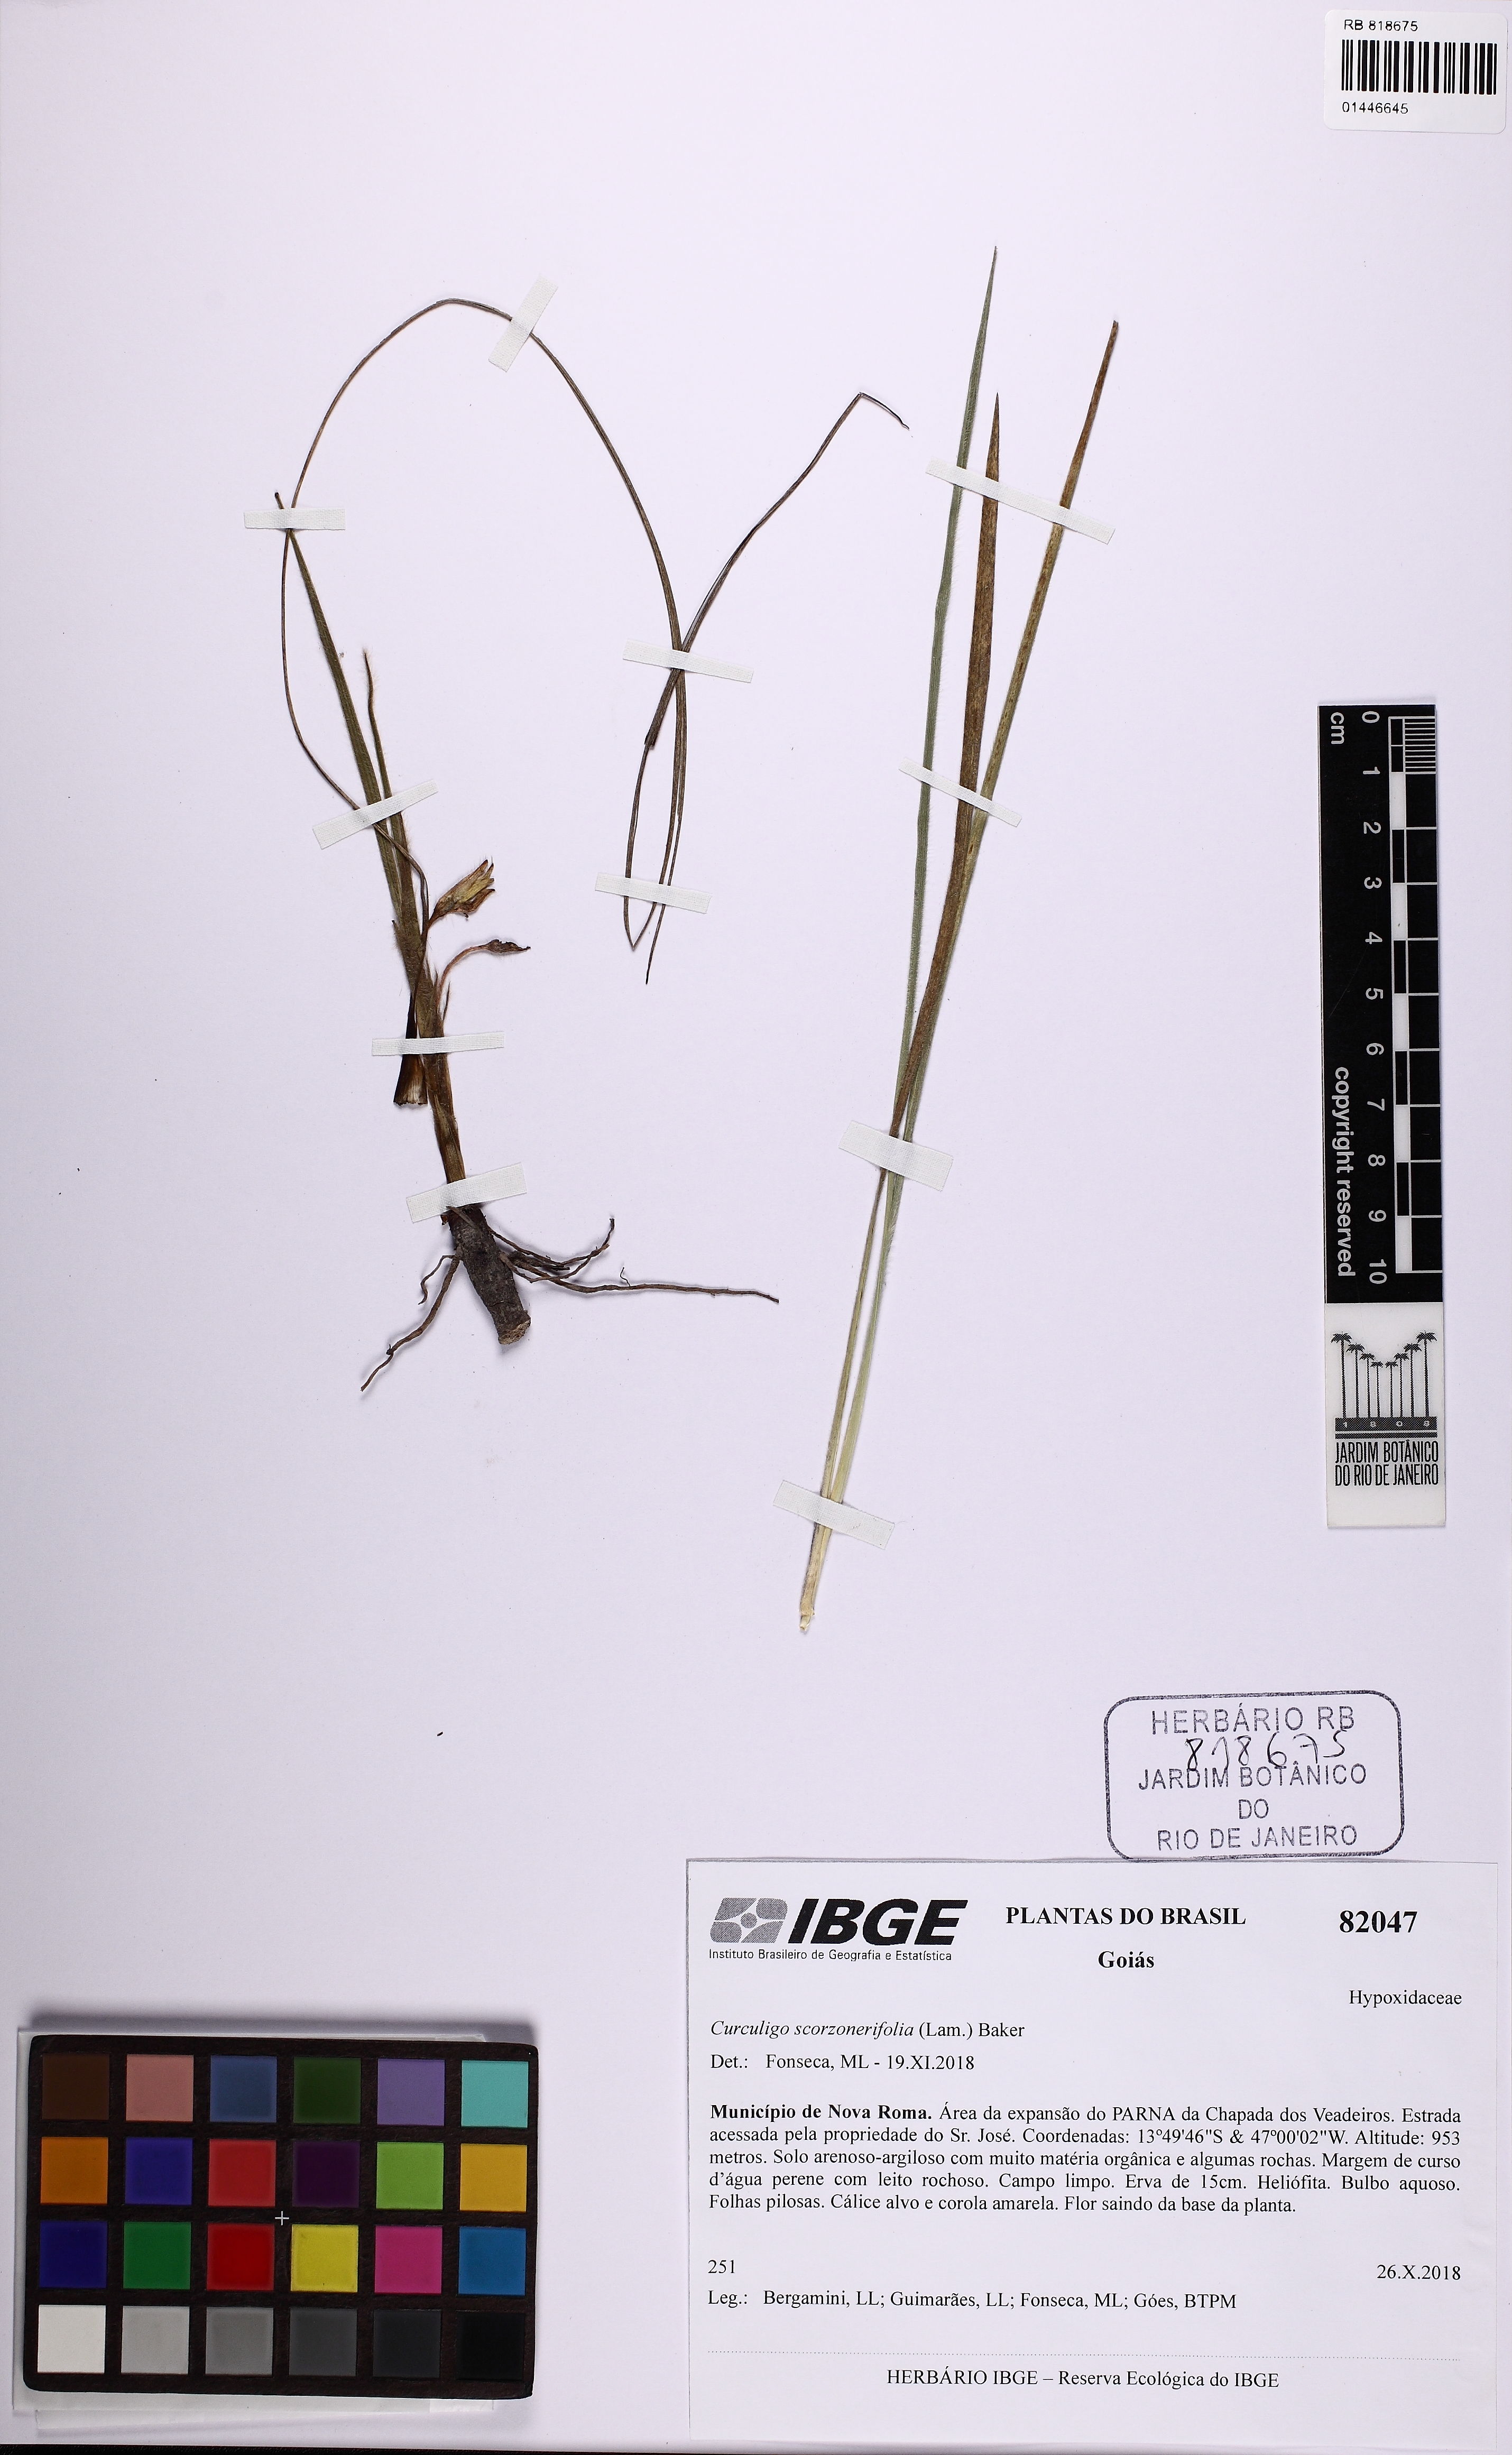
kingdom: Plantae
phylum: Tracheophyta
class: Liliopsida
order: Asparagales
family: Hypoxidaceae
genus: Curculigo
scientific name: Curculigo scorzonerifolia
